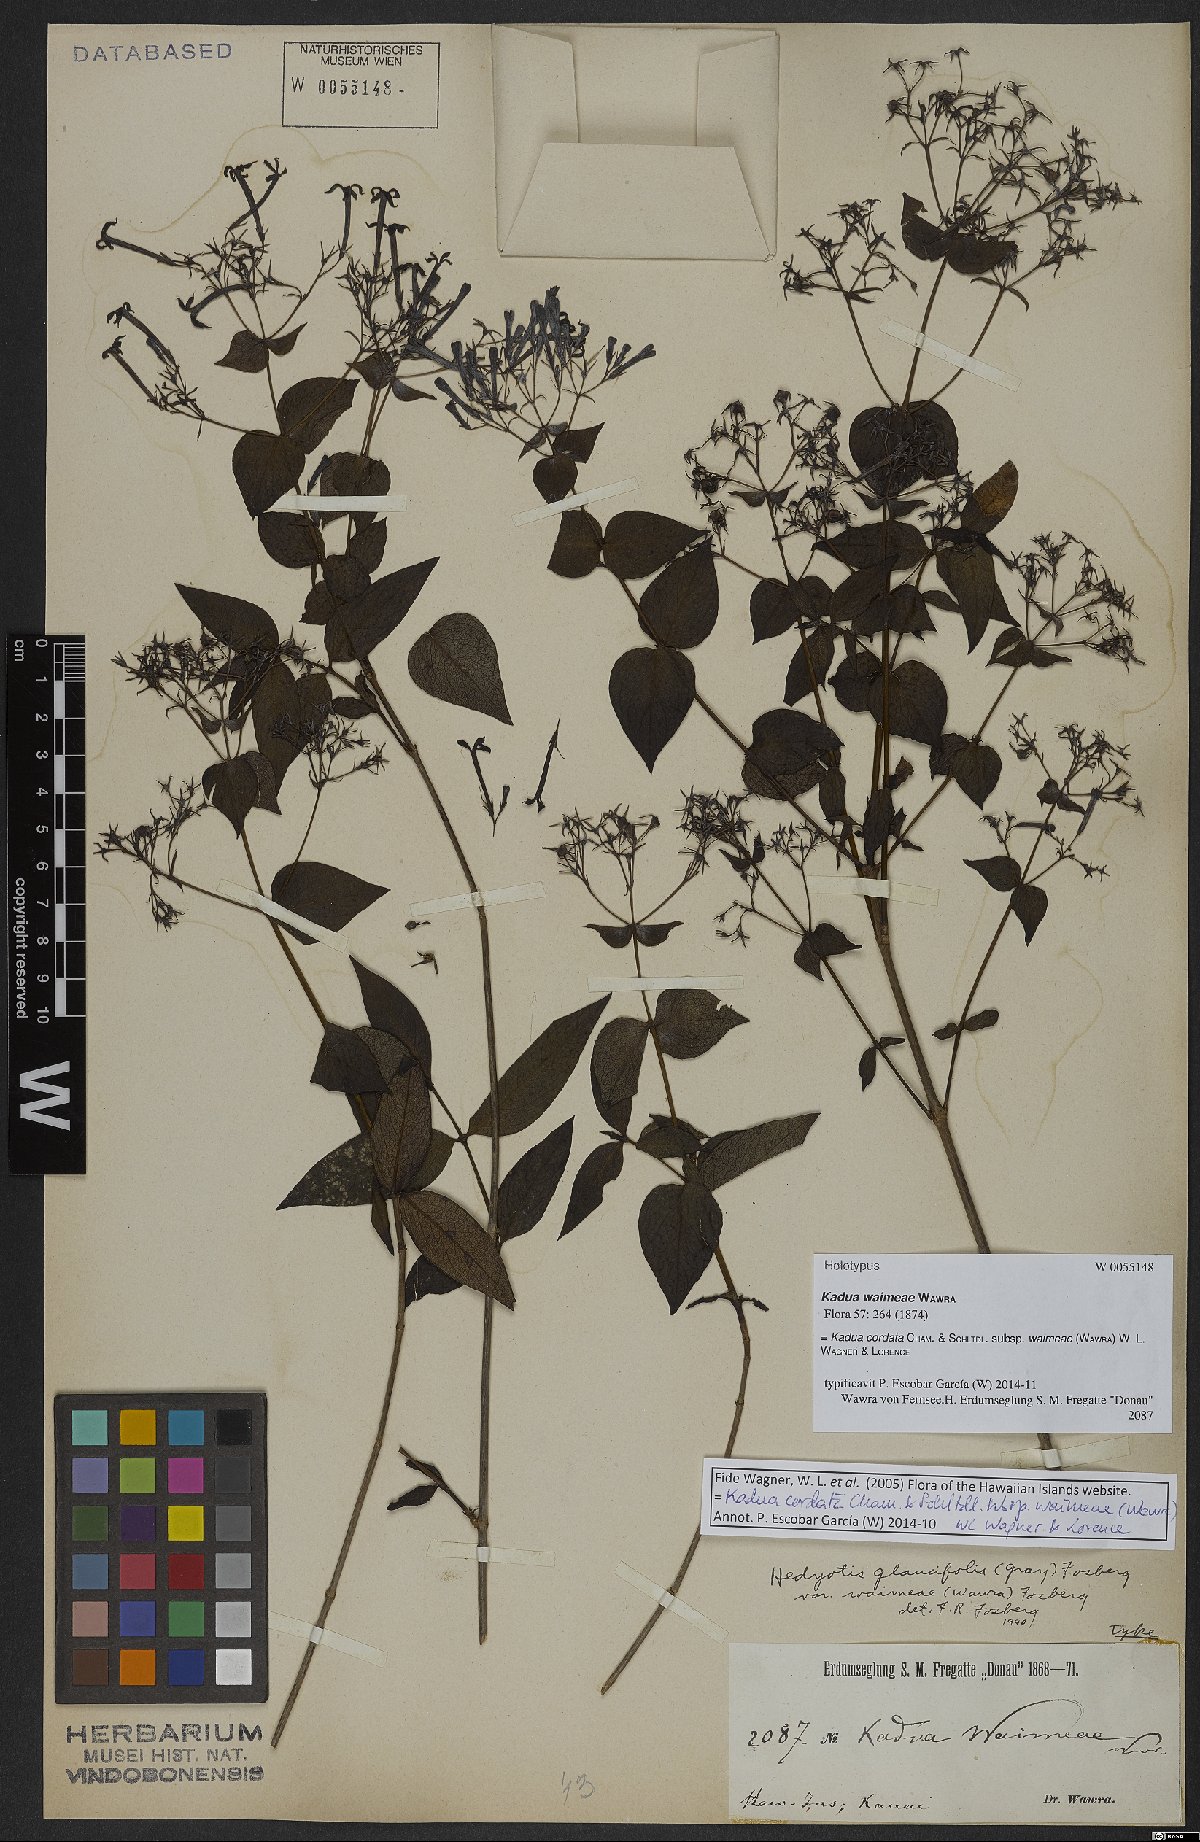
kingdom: Plantae
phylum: Tracheophyta
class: Magnoliopsida
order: Gentianales
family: Rubiaceae
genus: Kadua
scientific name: Kadua cordata
